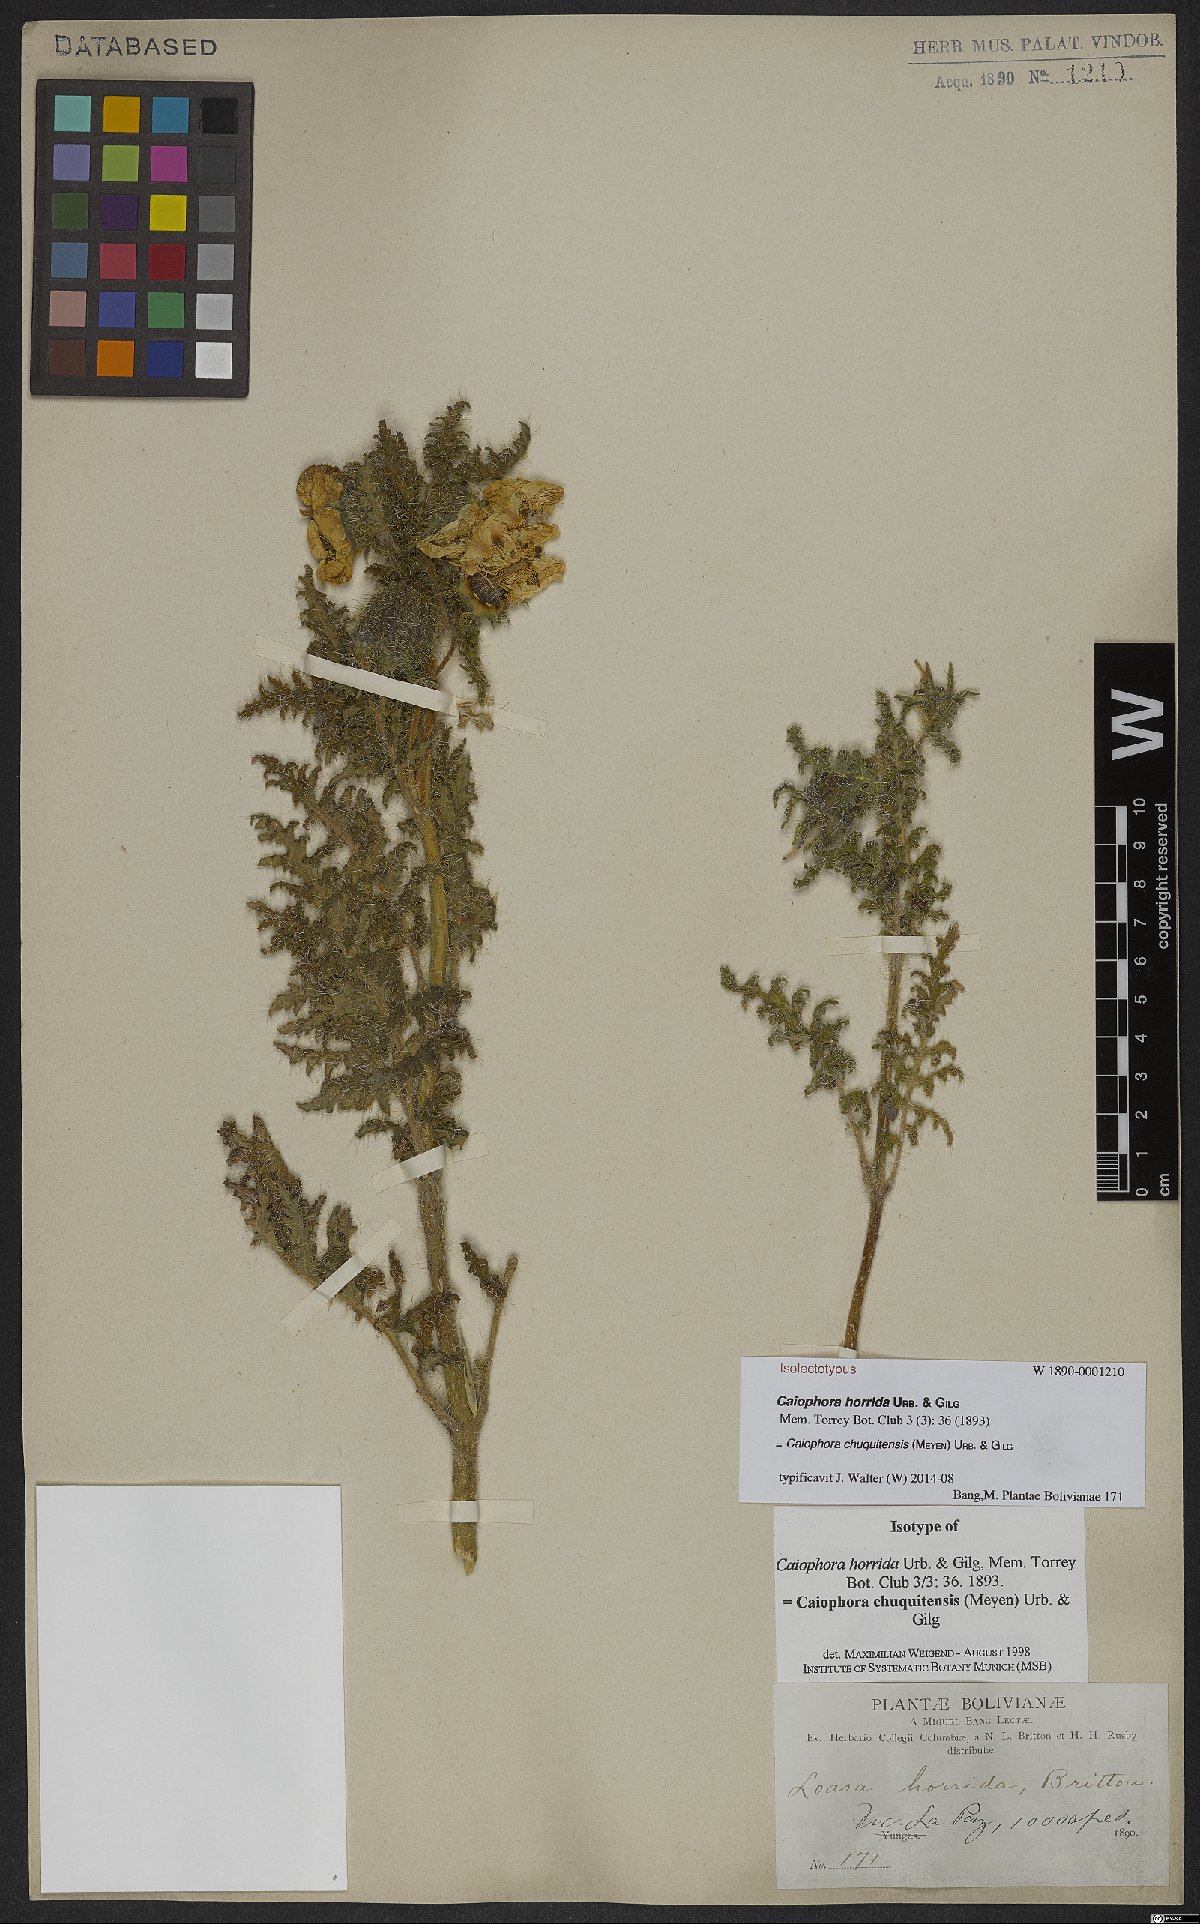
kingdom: Plantae
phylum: Tracheophyta
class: Magnoliopsida
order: Cornales
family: Loasaceae
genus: Caiophora
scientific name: Caiophora chuquitensis
